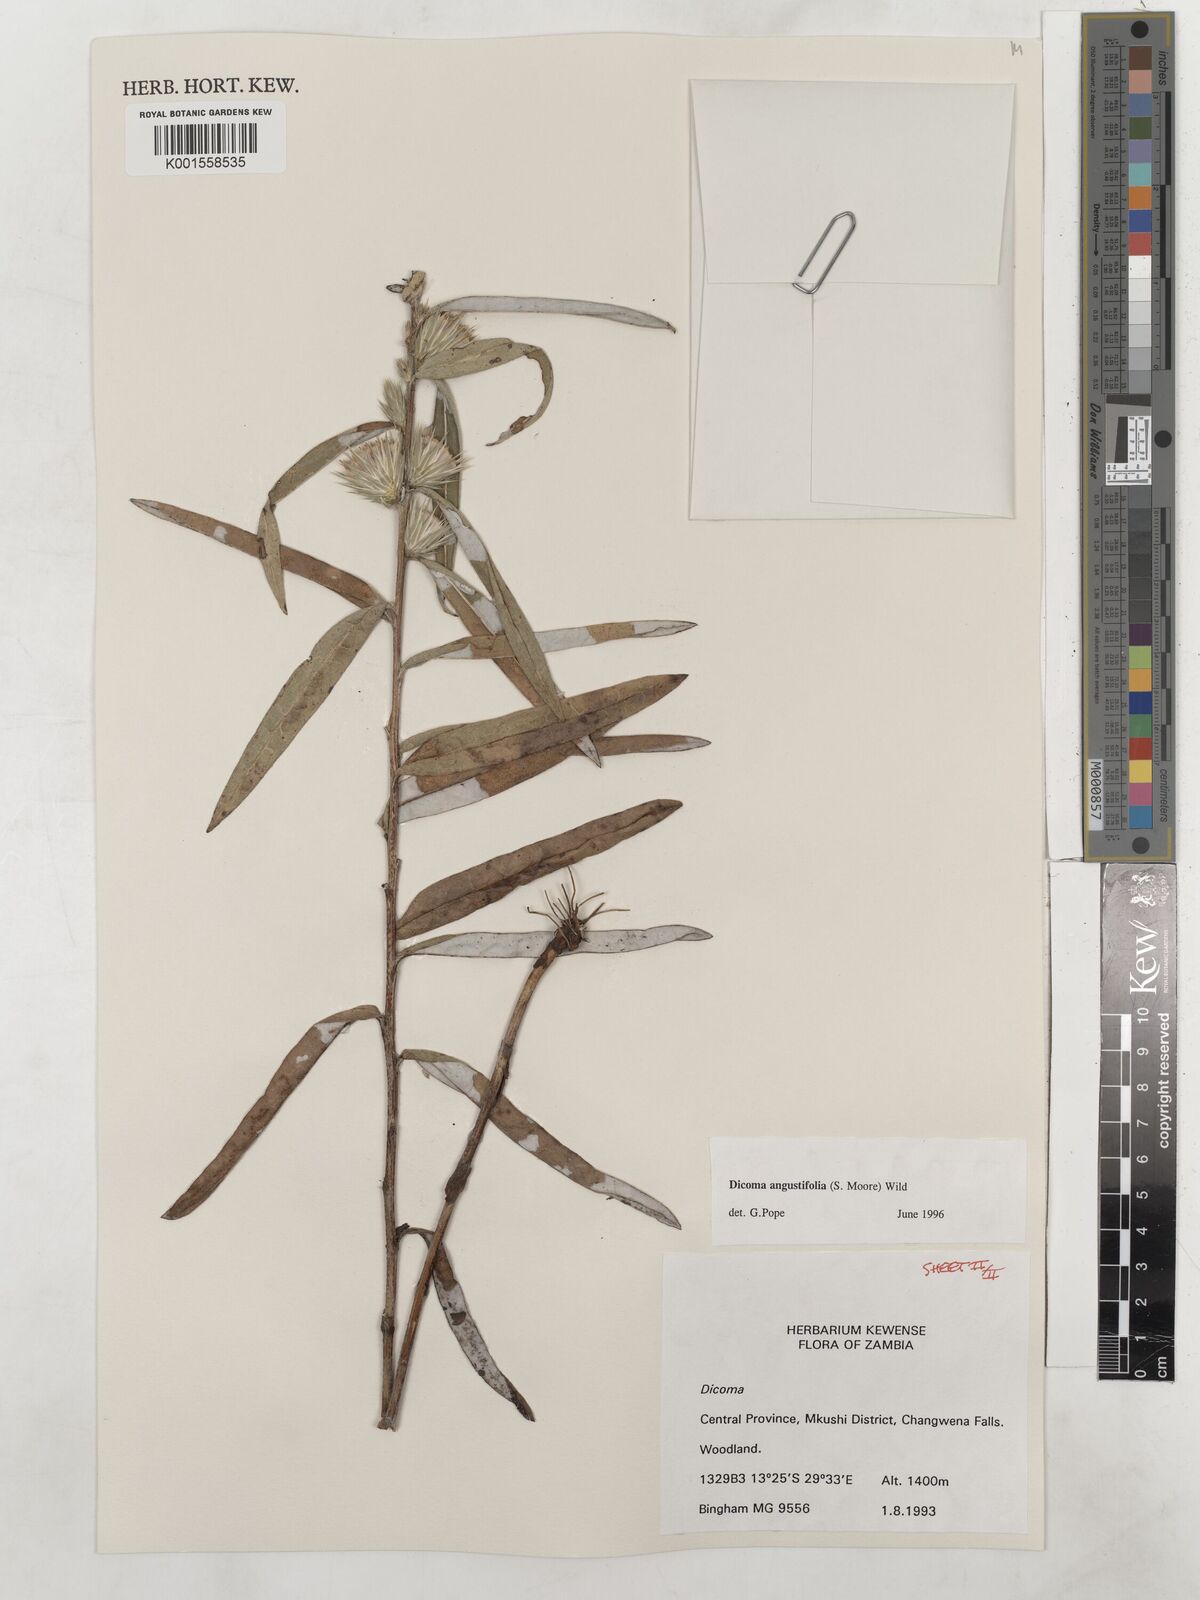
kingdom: Plantae
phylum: Tracheophyta
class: Magnoliopsida
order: Asterales
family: Asteraceae
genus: Macledium
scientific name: Macledium poggei
